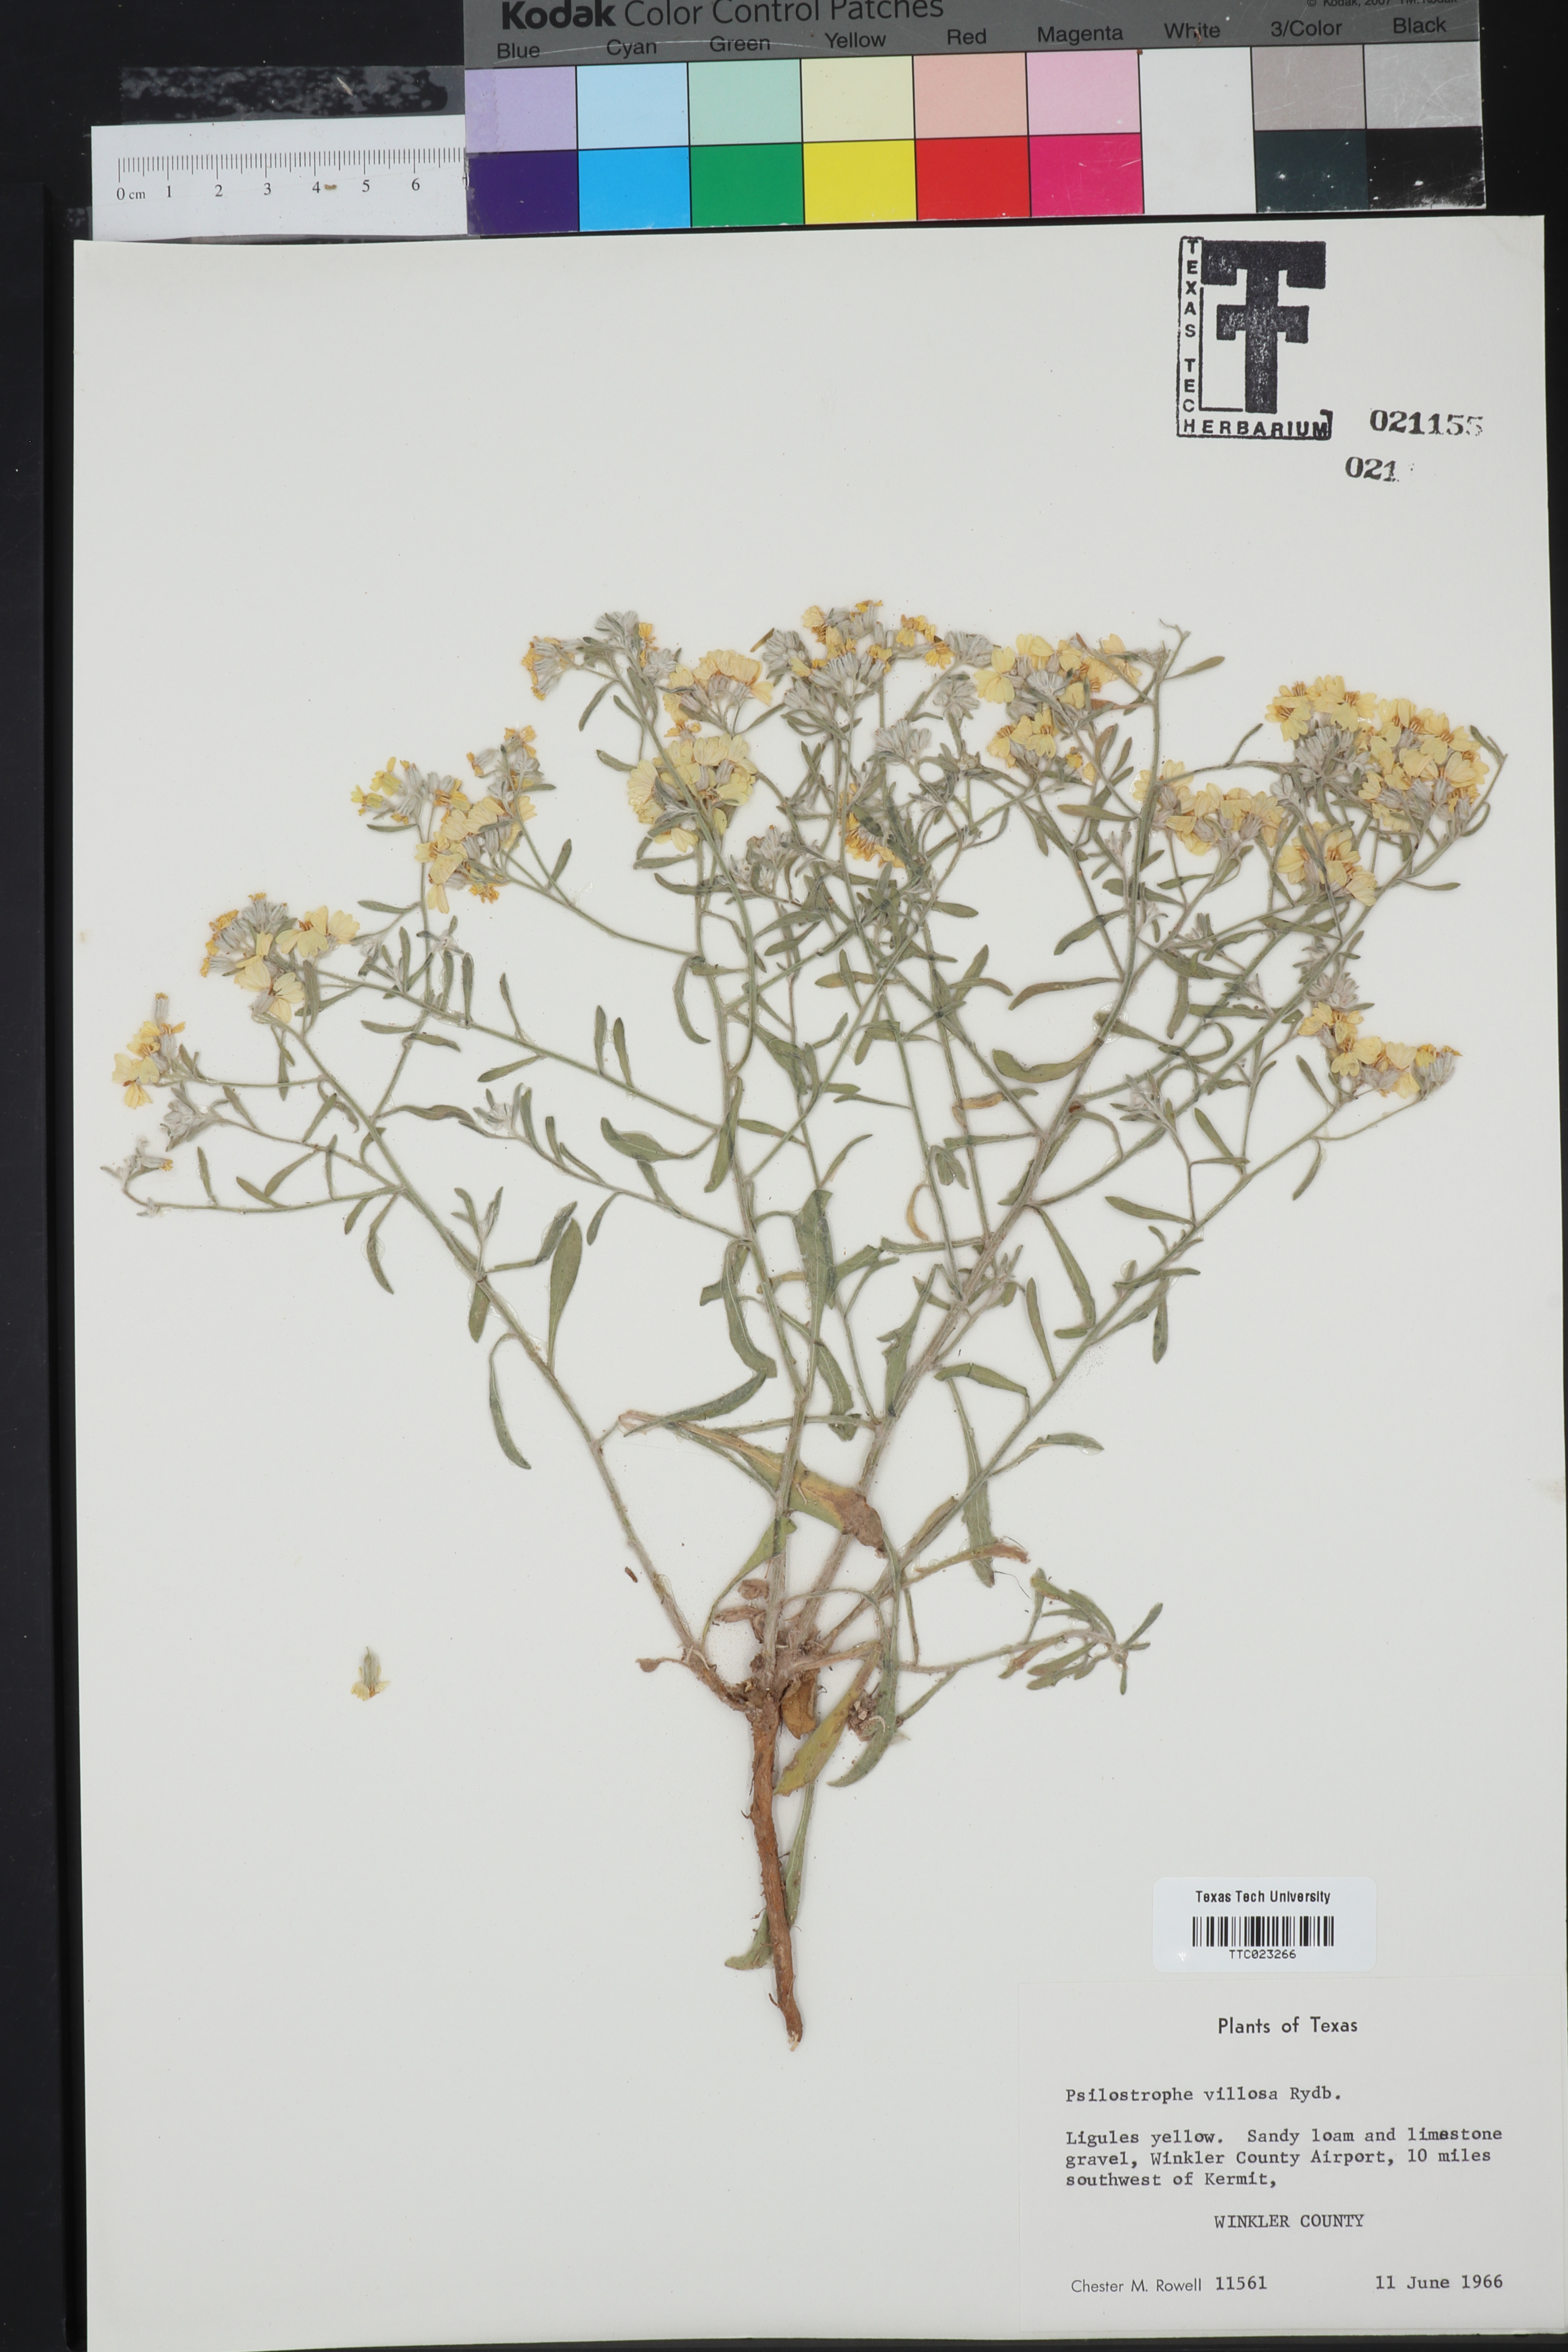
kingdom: Plantae
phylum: Tracheophyta
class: Magnoliopsida
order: Asterales
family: Asteraceae
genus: Psilostrophe
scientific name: Psilostrophe villosa
